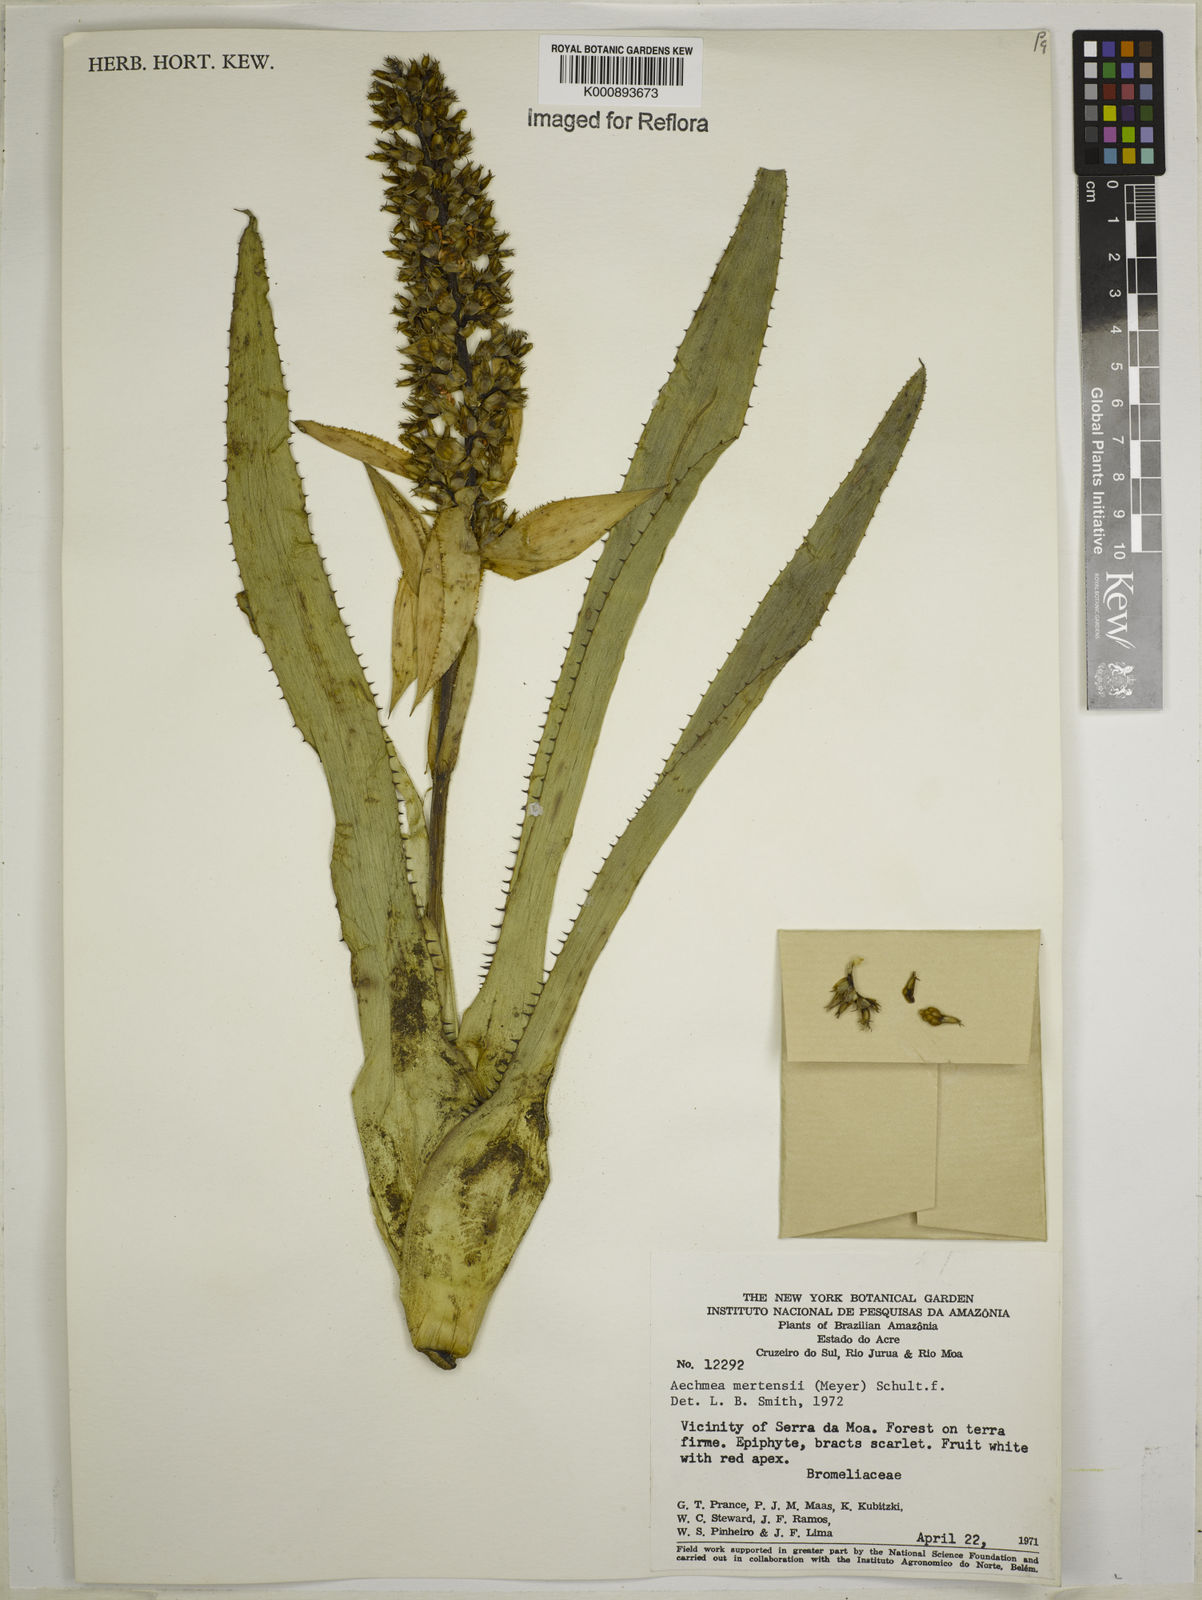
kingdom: Plantae
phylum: Tracheophyta
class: Liliopsida
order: Poales
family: Bromeliaceae
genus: Aechmea
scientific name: Aechmea mertensii
